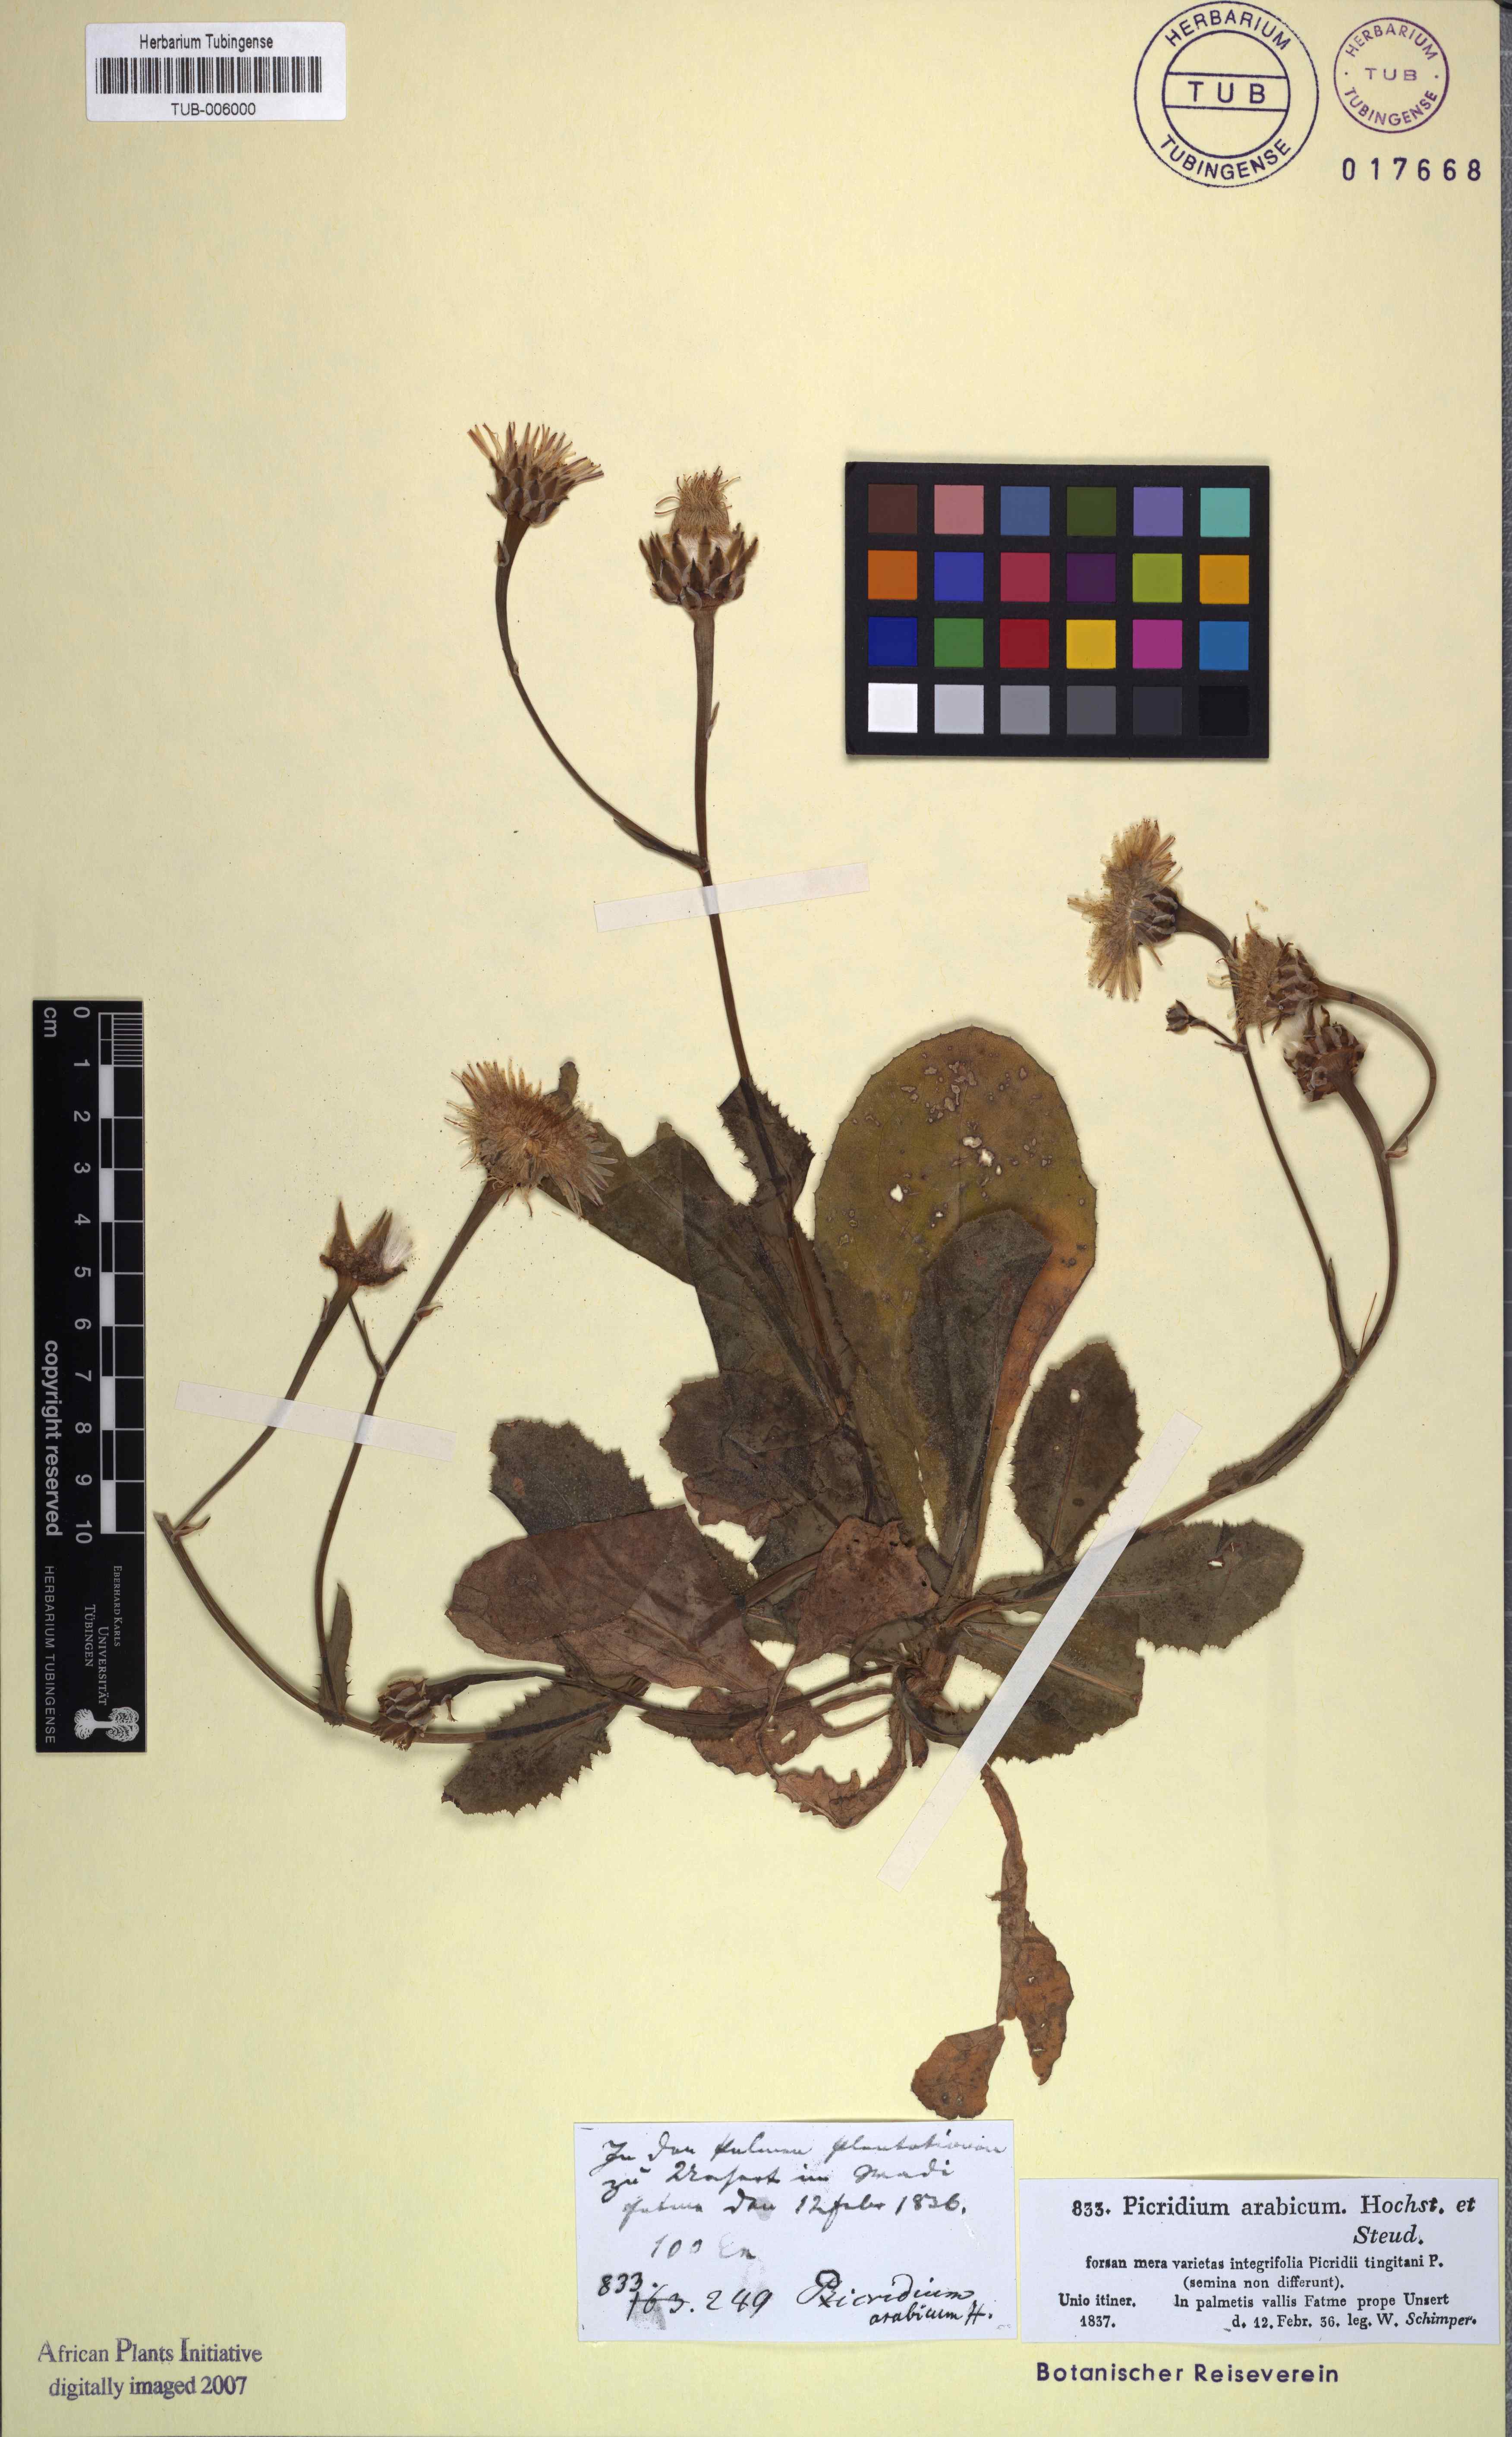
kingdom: Plantae
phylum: Tracheophyta
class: Magnoliopsida
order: Asterales
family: Asteraceae
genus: Reichardia
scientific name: Reichardia tingitana
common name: Reichardia
